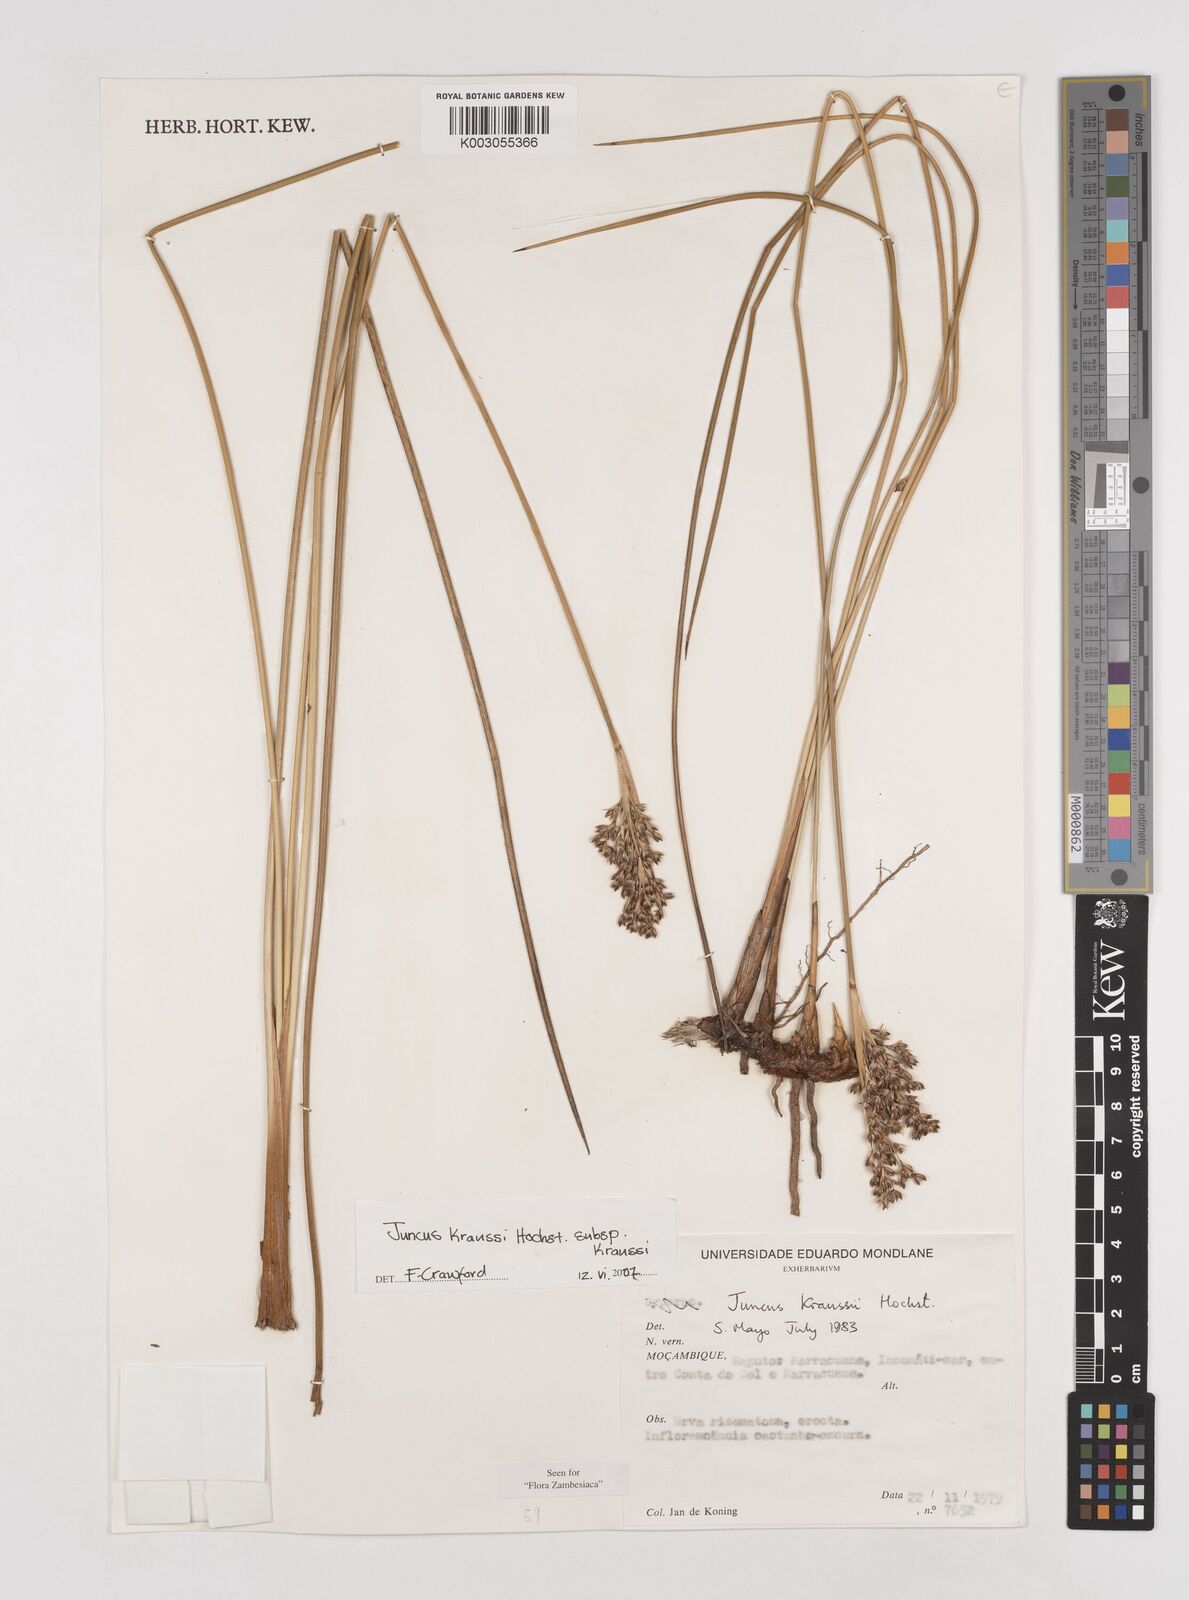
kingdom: Plantae
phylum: Tracheophyta
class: Liliopsida
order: Poales
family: Juncaceae
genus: Juncus
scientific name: Juncus kraussii
